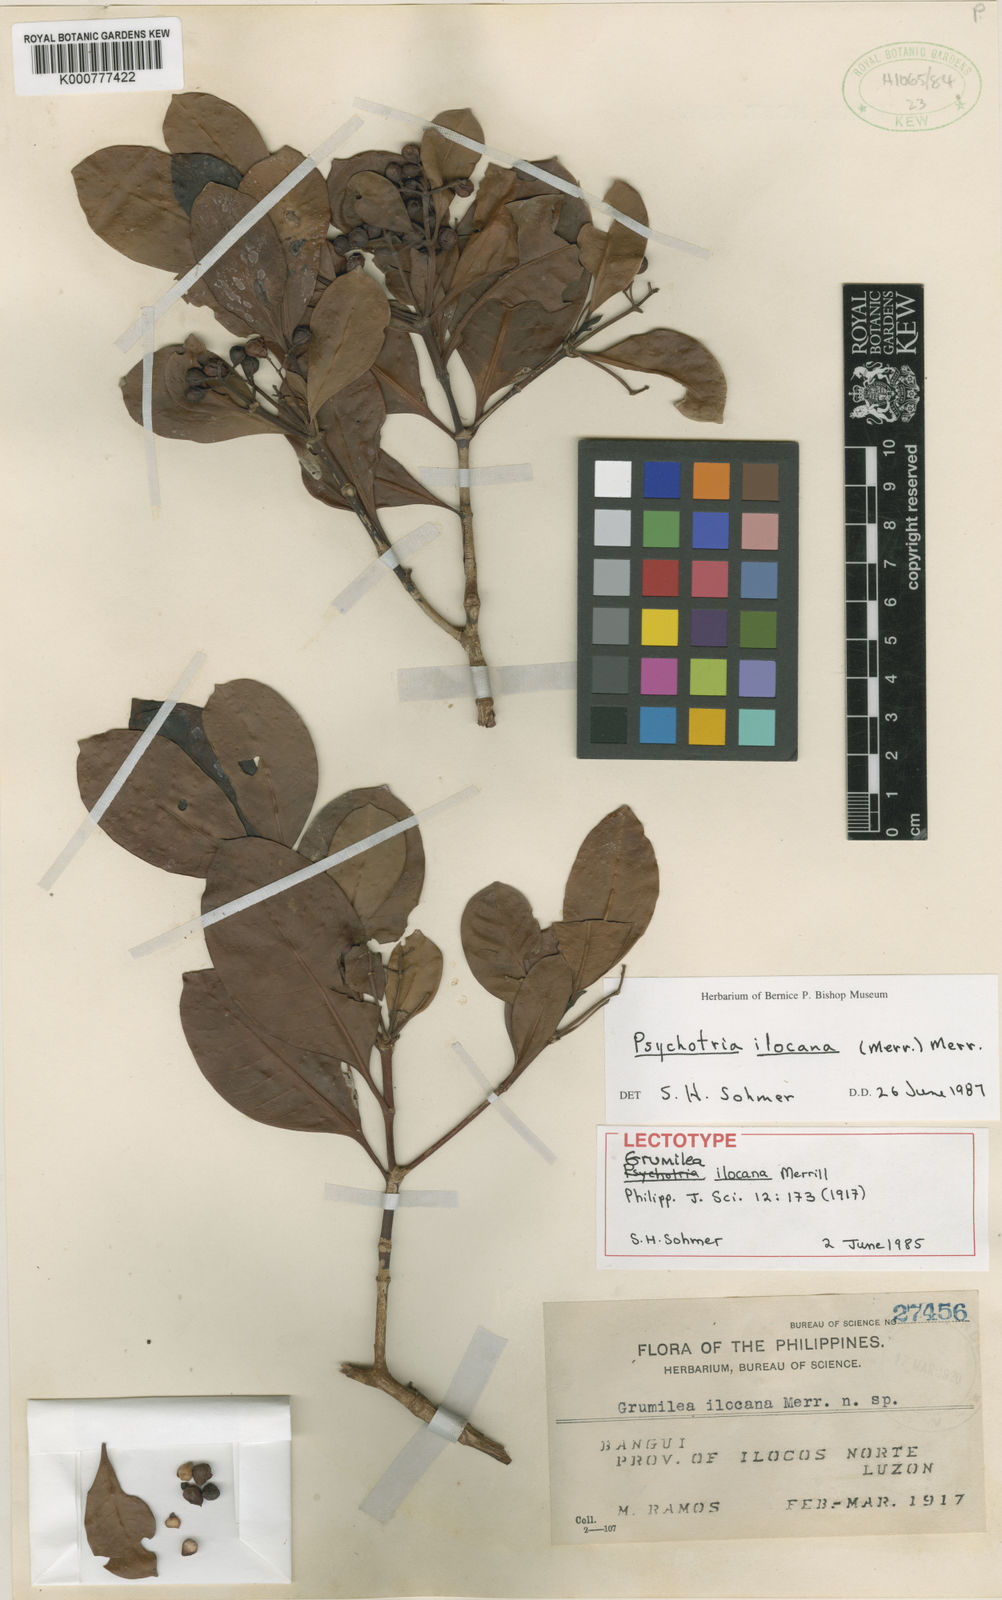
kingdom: Plantae
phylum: Tracheophyta
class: Magnoliopsida
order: Gentianales
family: Rubiaceae
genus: Psychotria
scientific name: Psychotria ilocana
